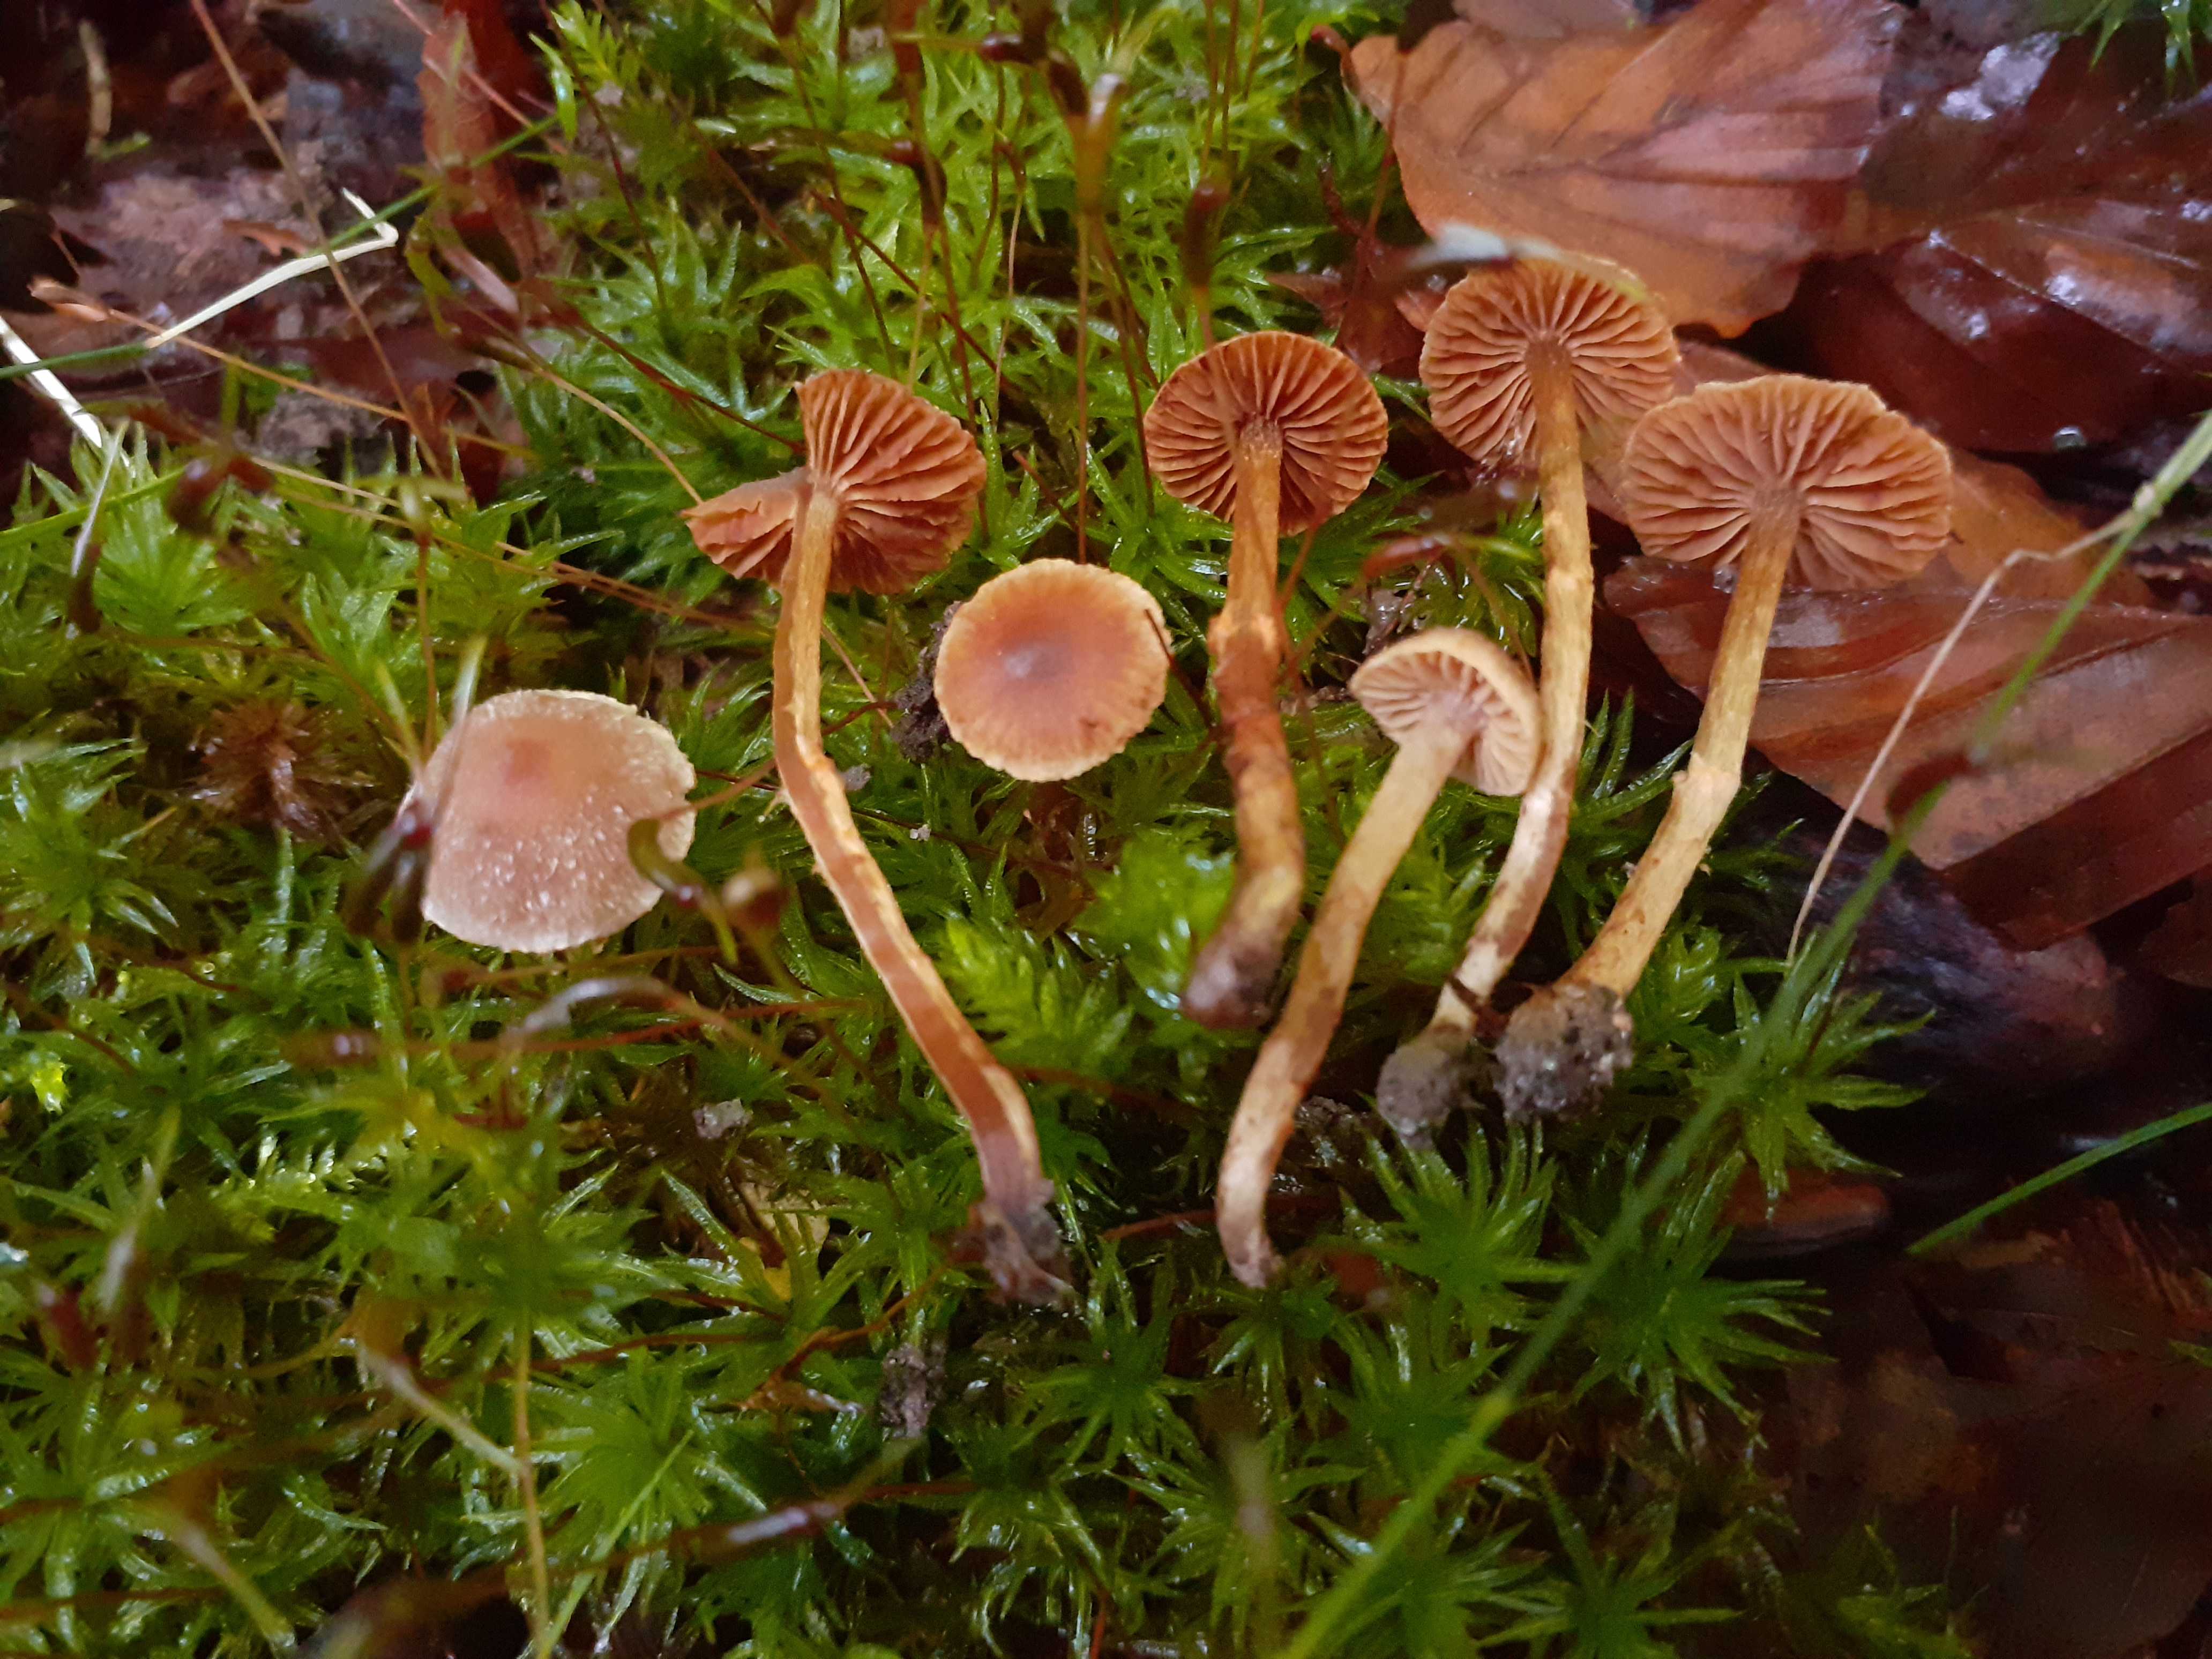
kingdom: Fungi
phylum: Basidiomycota
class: Agaricomycetes
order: Agaricales
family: Cortinariaceae
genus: Cortinarius
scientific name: Cortinarius castaneopallidus
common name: bronzetrævlet slørhat
